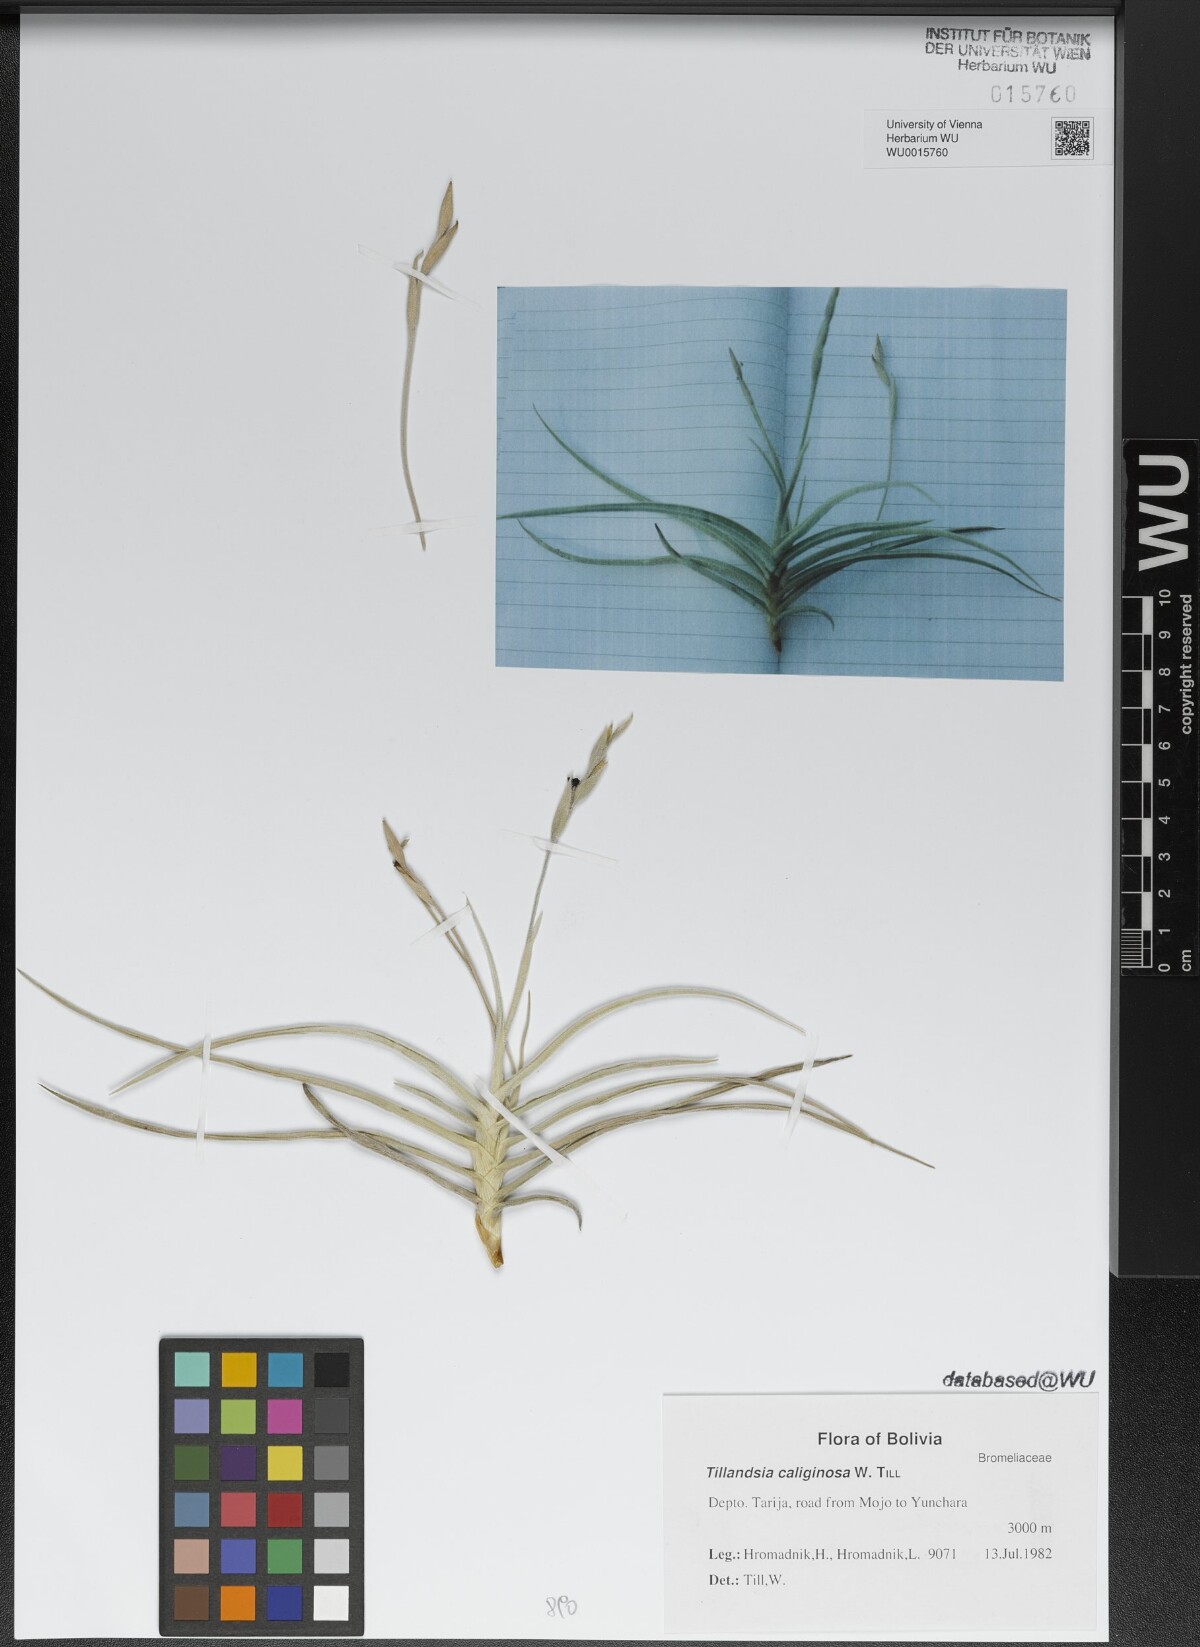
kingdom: Plantae
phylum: Tracheophyta
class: Liliopsida
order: Poales
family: Bromeliaceae
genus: Tillandsia
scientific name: Tillandsia caliginosa
